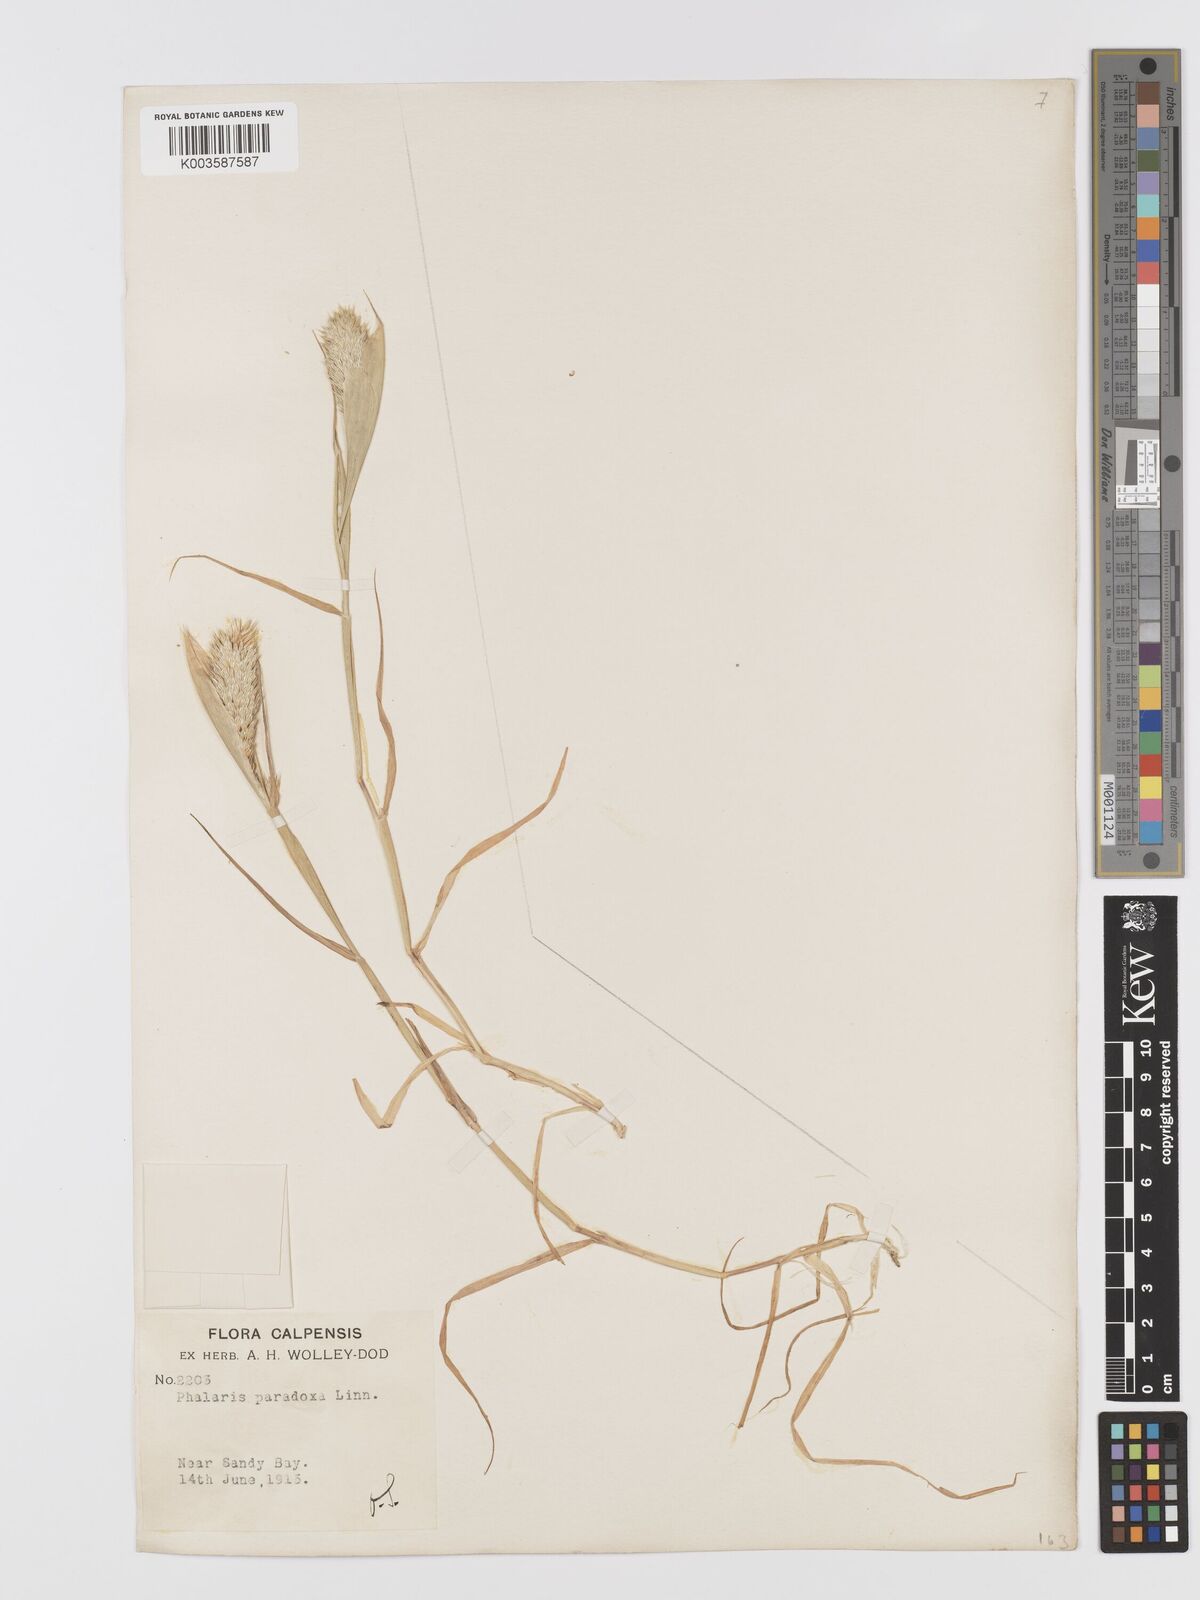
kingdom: Plantae
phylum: Tracheophyta
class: Liliopsida
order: Poales
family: Poaceae
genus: Phalaris
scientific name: Phalaris paradoxa
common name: Awned canary-grass
